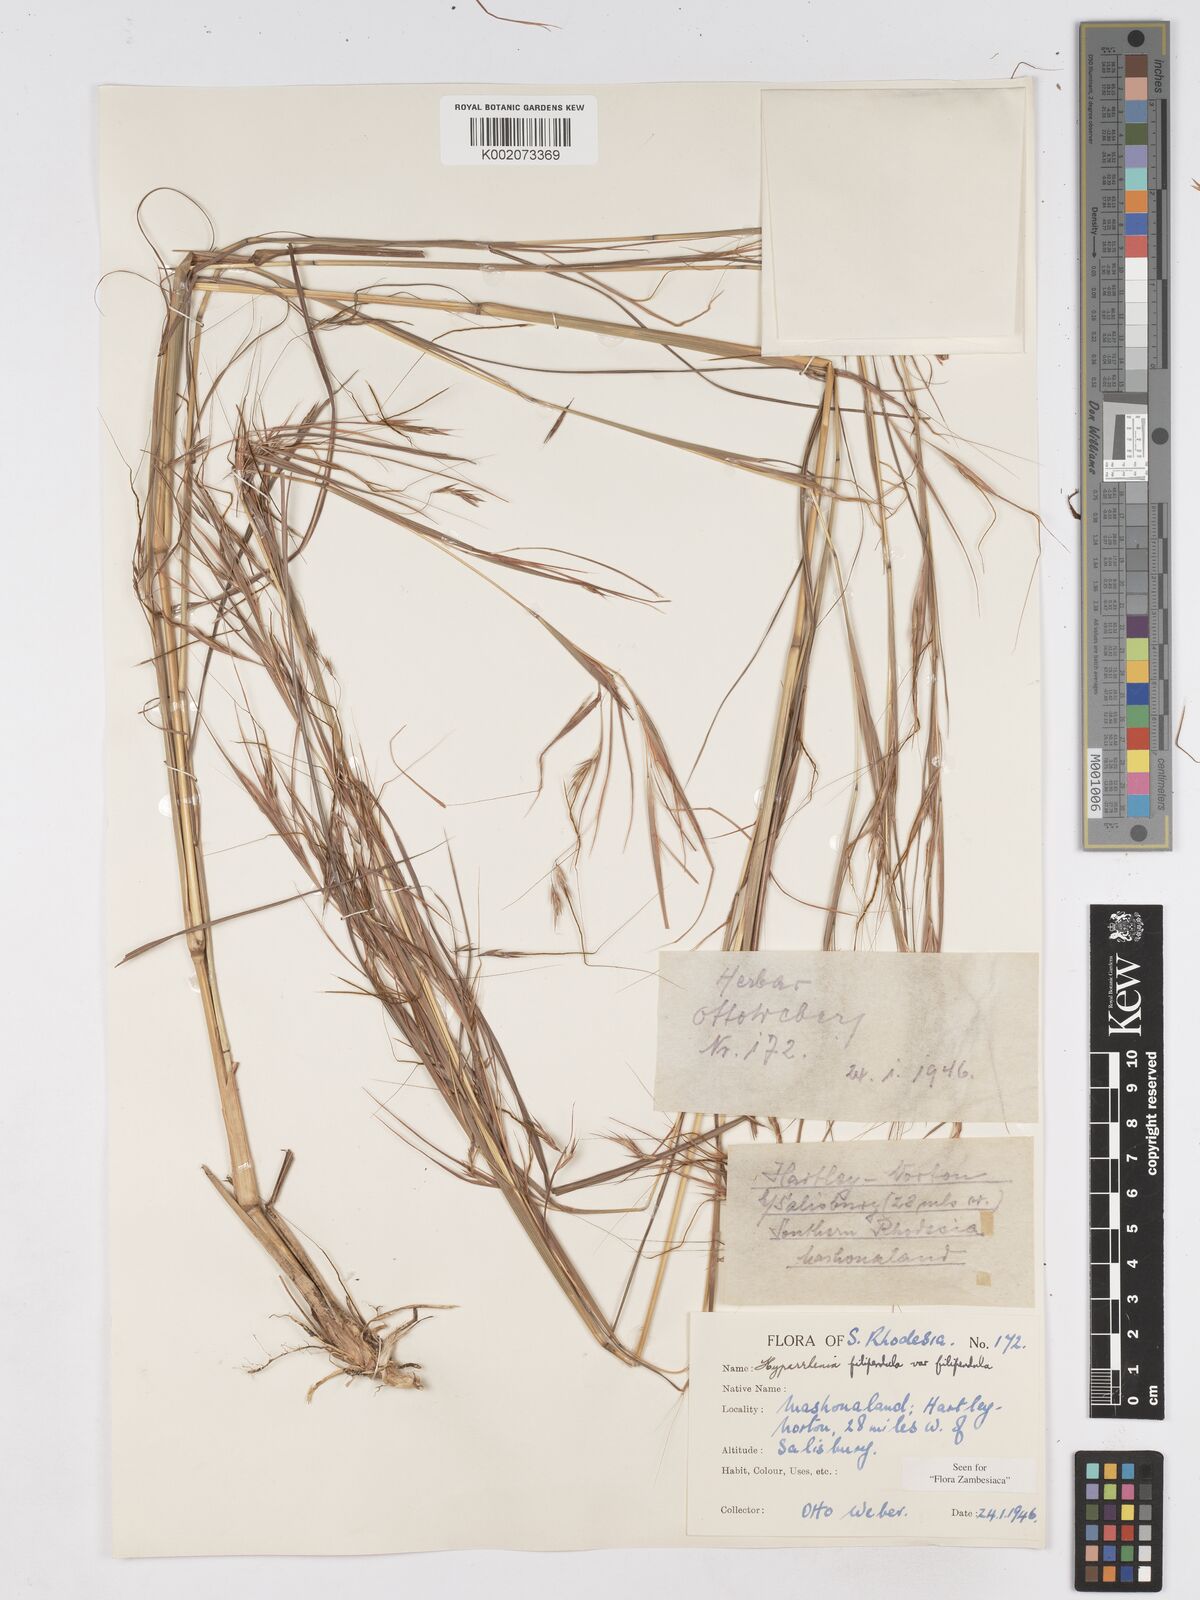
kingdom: Plantae
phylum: Tracheophyta
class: Liliopsida
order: Poales
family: Poaceae
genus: Hyparrhenia
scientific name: Hyparrhenia filipendula
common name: Tambookie grass
